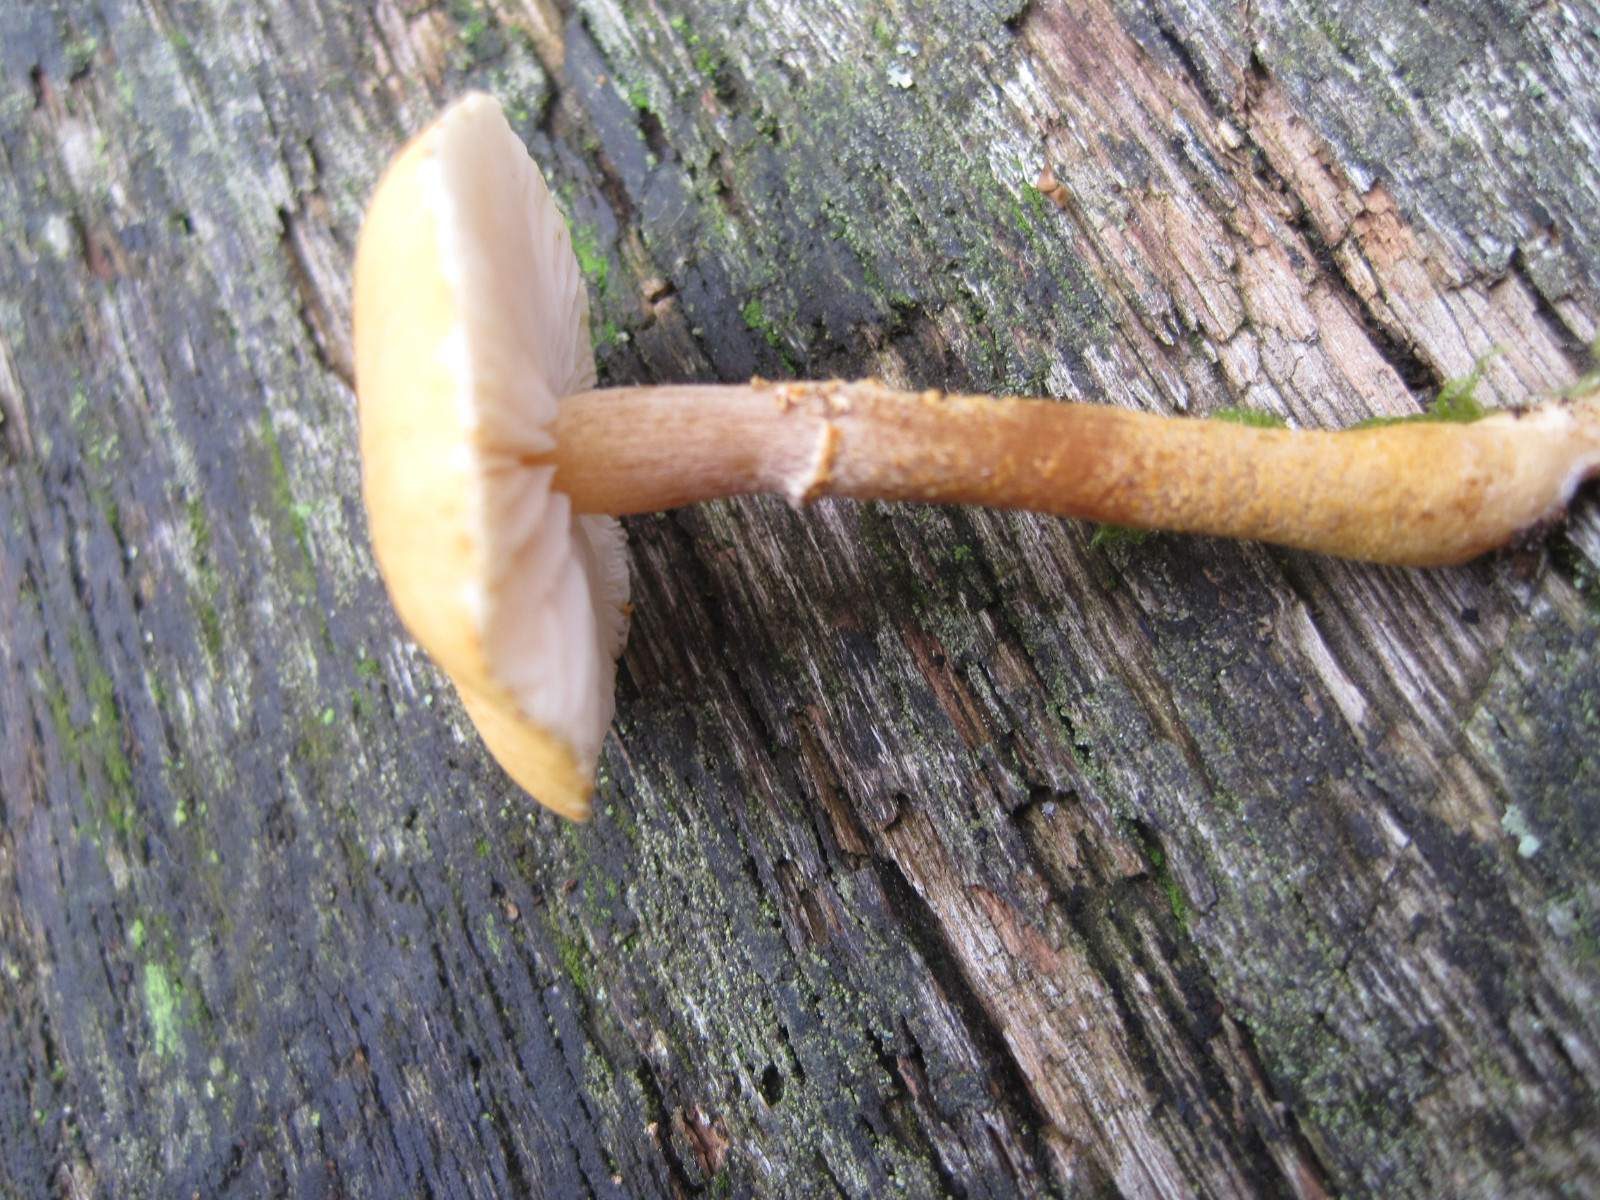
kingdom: Fungi
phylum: Basidiomycota
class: Agaricomycetes
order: Agaricales
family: Tricholomataceae
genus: Cystoderma
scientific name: Cystoderma amianthinum
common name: okkergul grynhat
